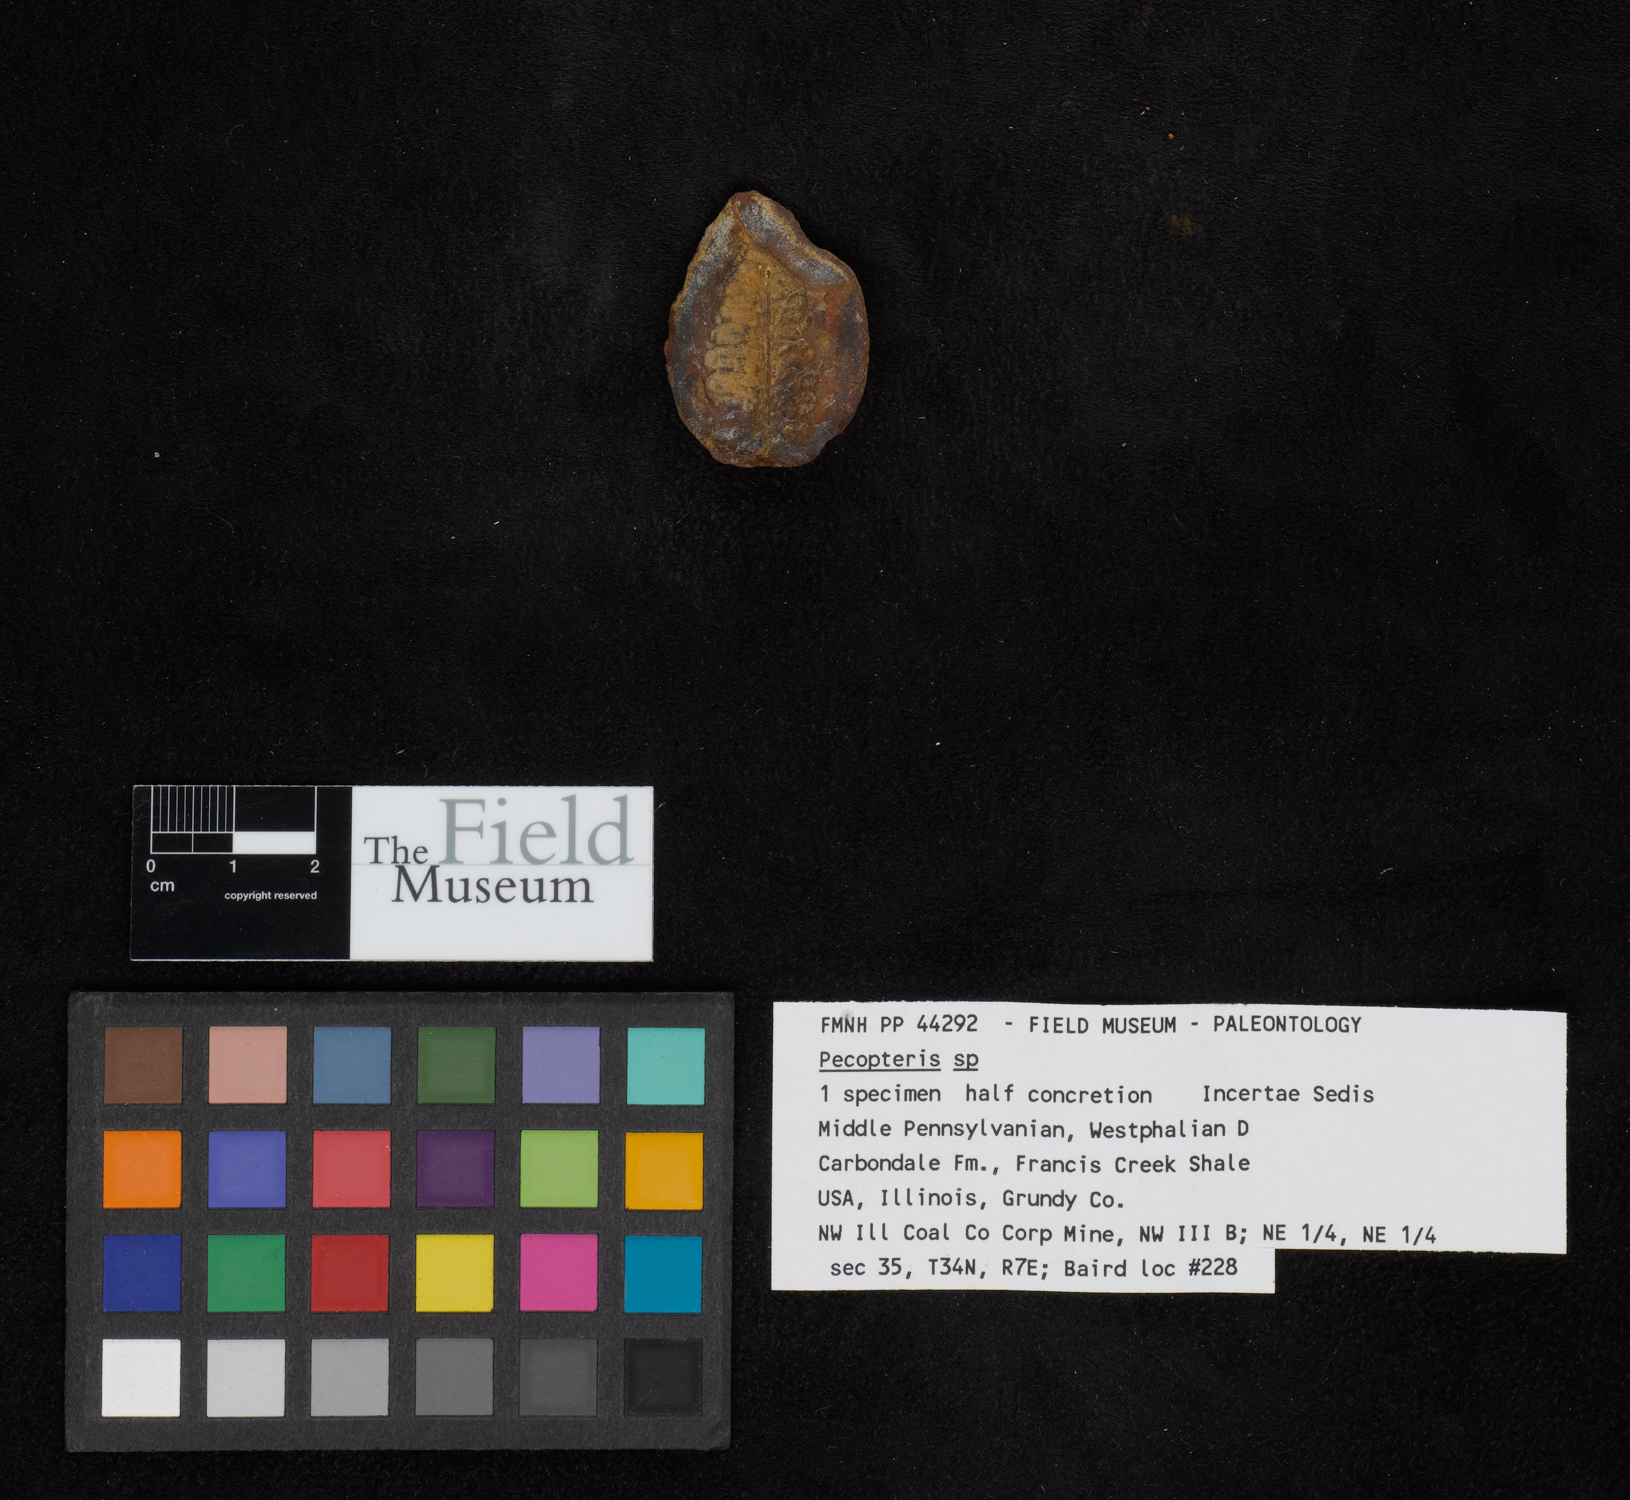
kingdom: Plantae
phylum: Tracheophyta
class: Polypodiopsida
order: Marattiales
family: Asterothecaceae
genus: Pecopteris
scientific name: Pecopteris
